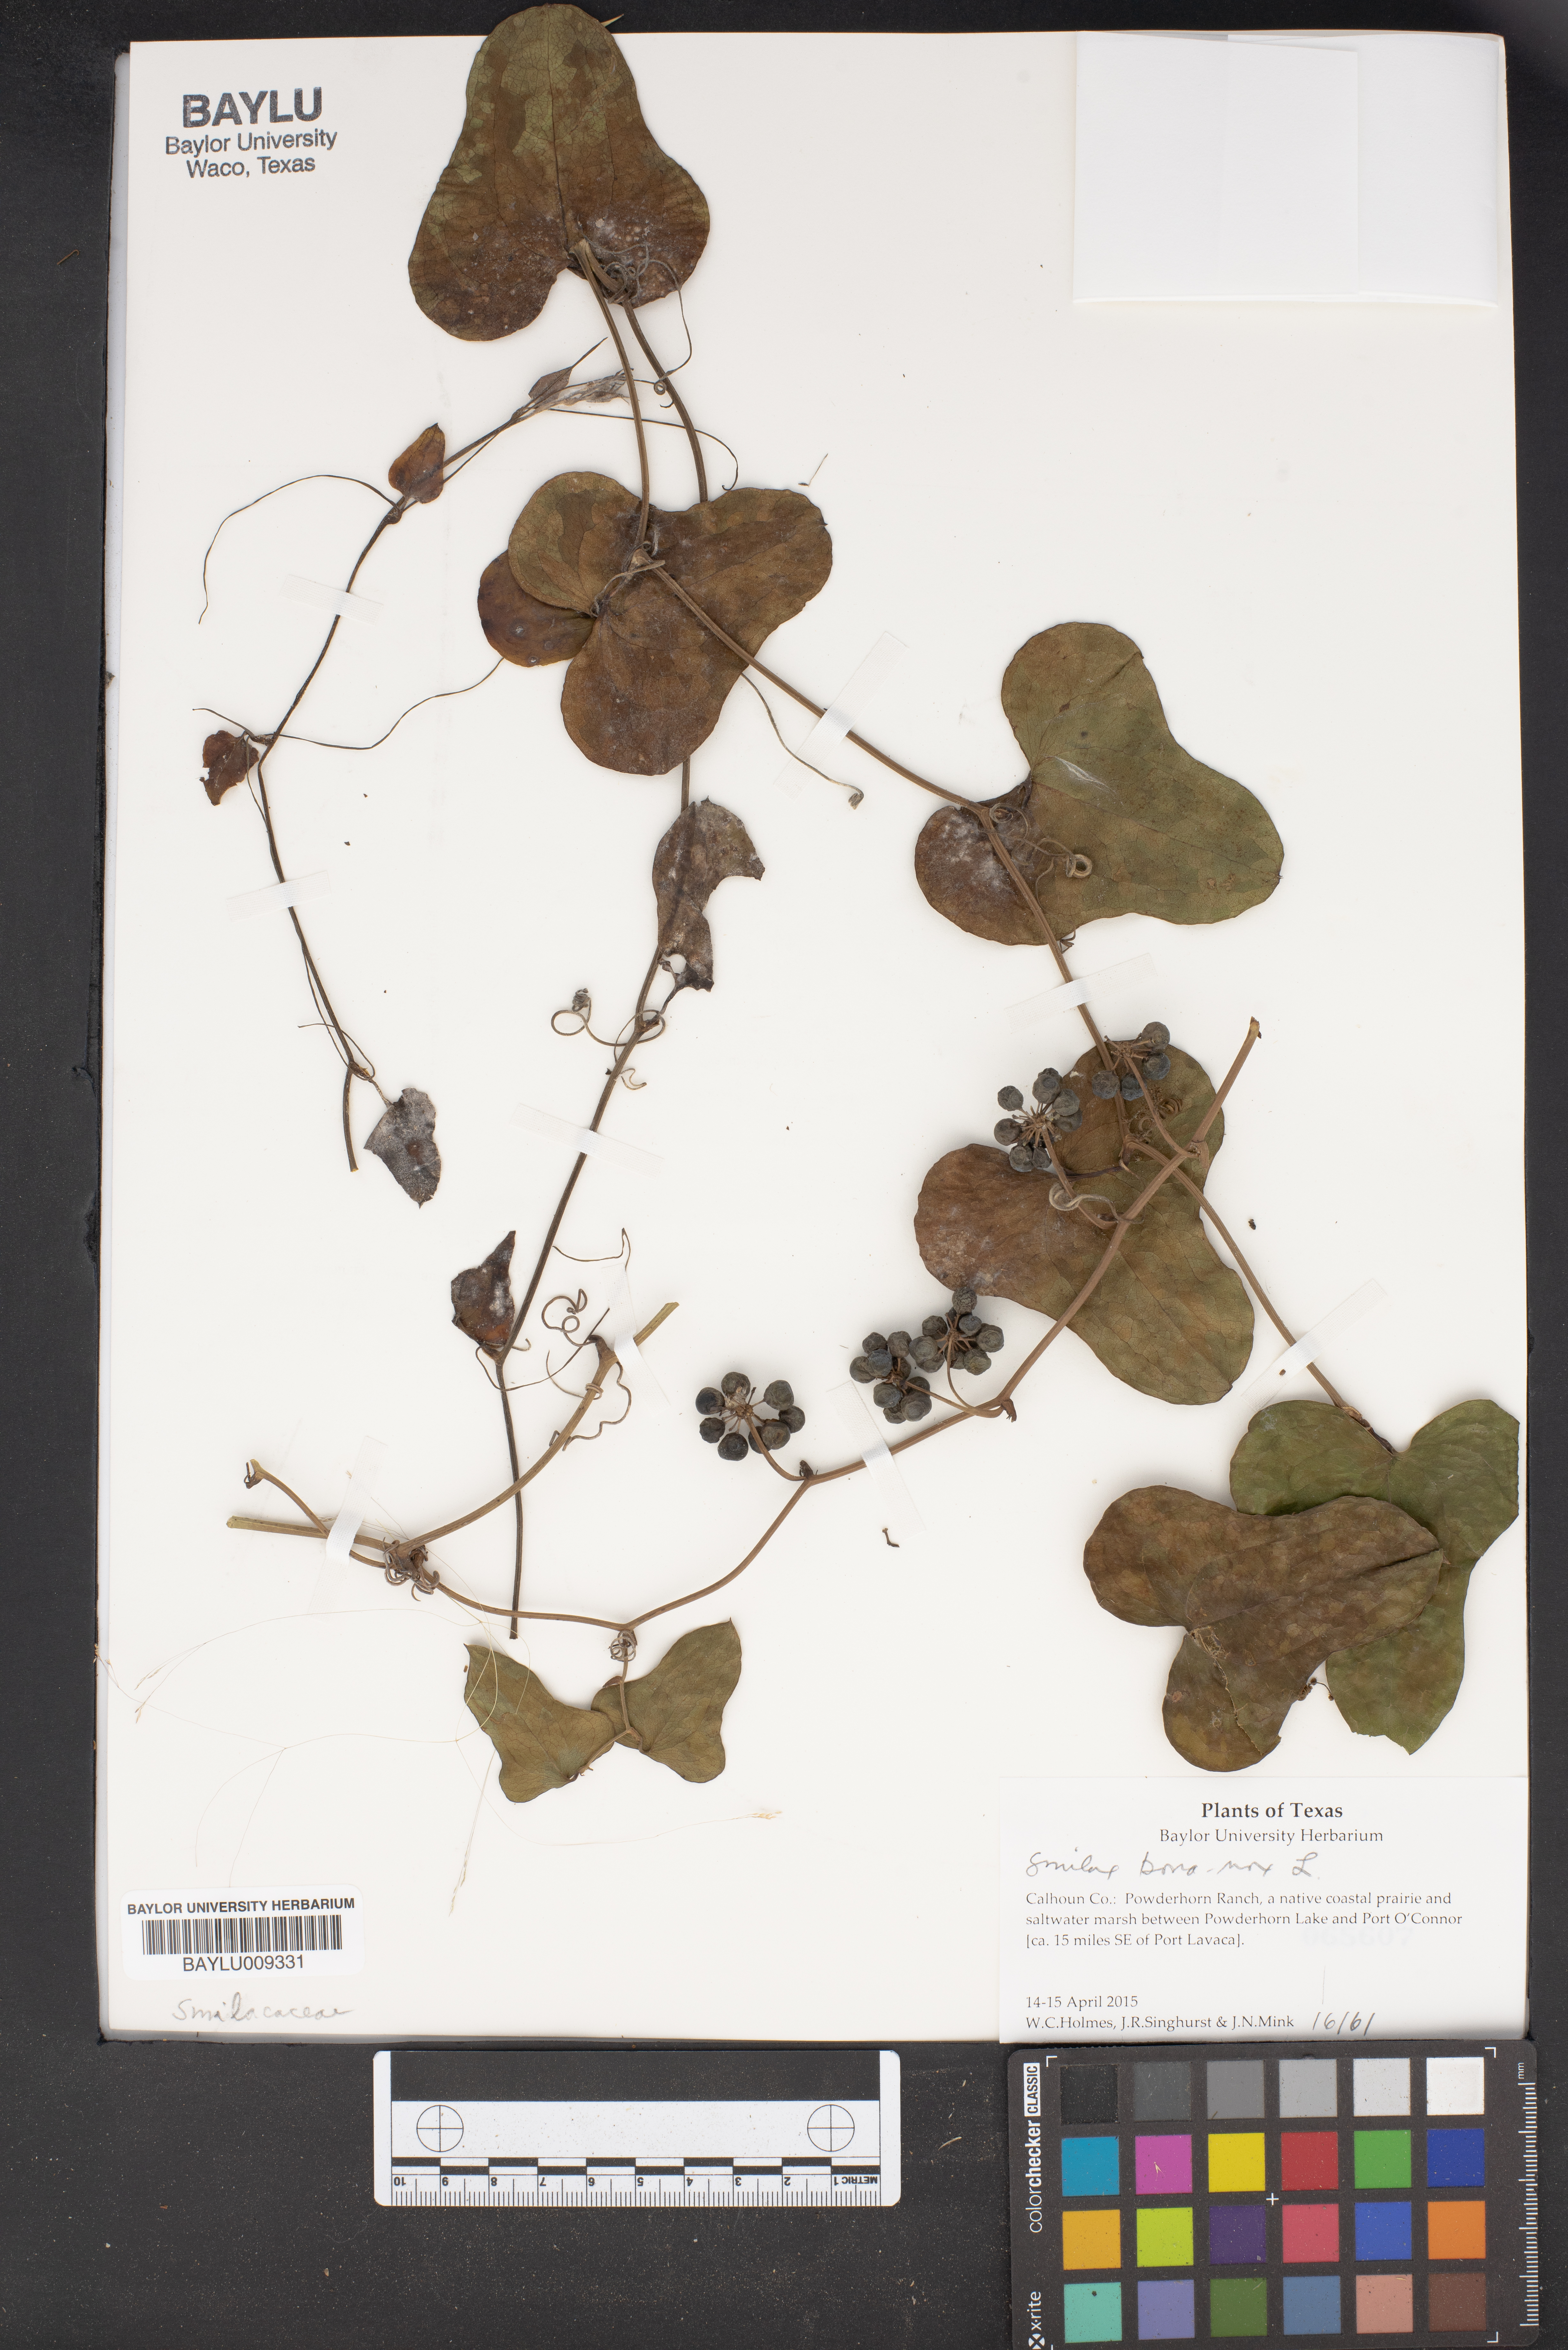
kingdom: Plantae
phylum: Tracheophyta
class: Liliopsida
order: Liliales
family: Smilacaceae
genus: Smilax
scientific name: Smilax bona-nox
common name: Catbrier
